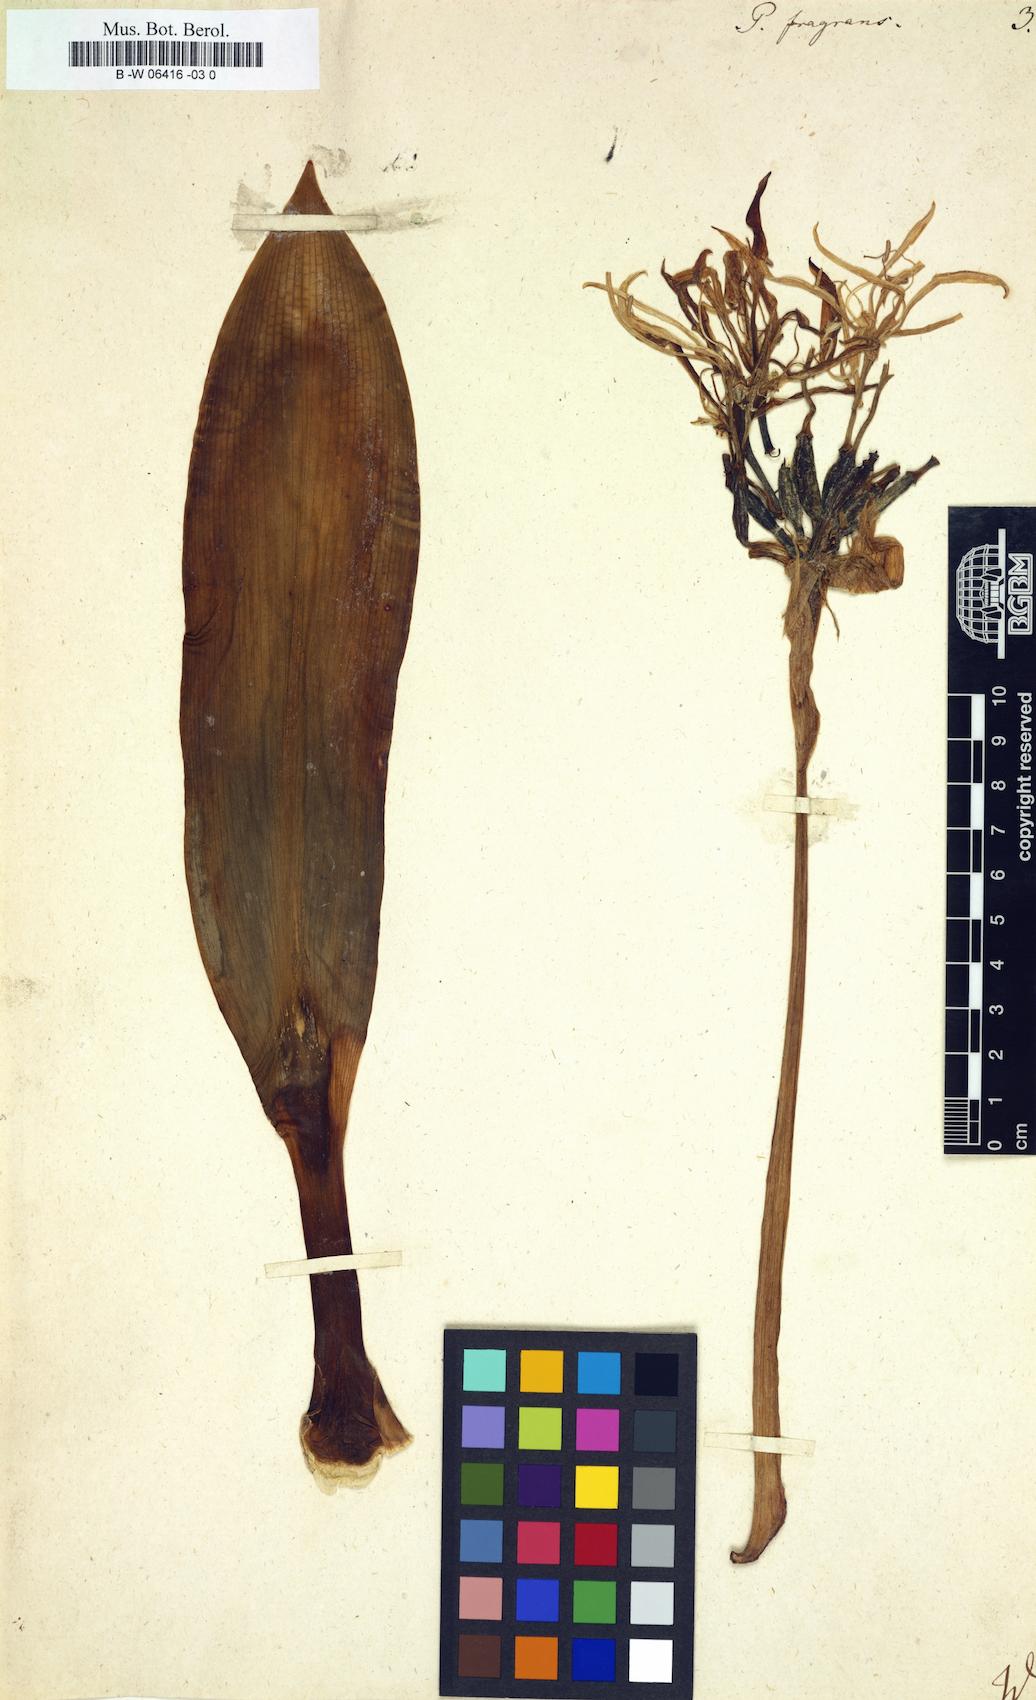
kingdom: Plantae
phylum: Tracheophyta
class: Liliopsida
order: Asparagales
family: Amaryllidaceae
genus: Pancratium
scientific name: Pancratium fragrans
